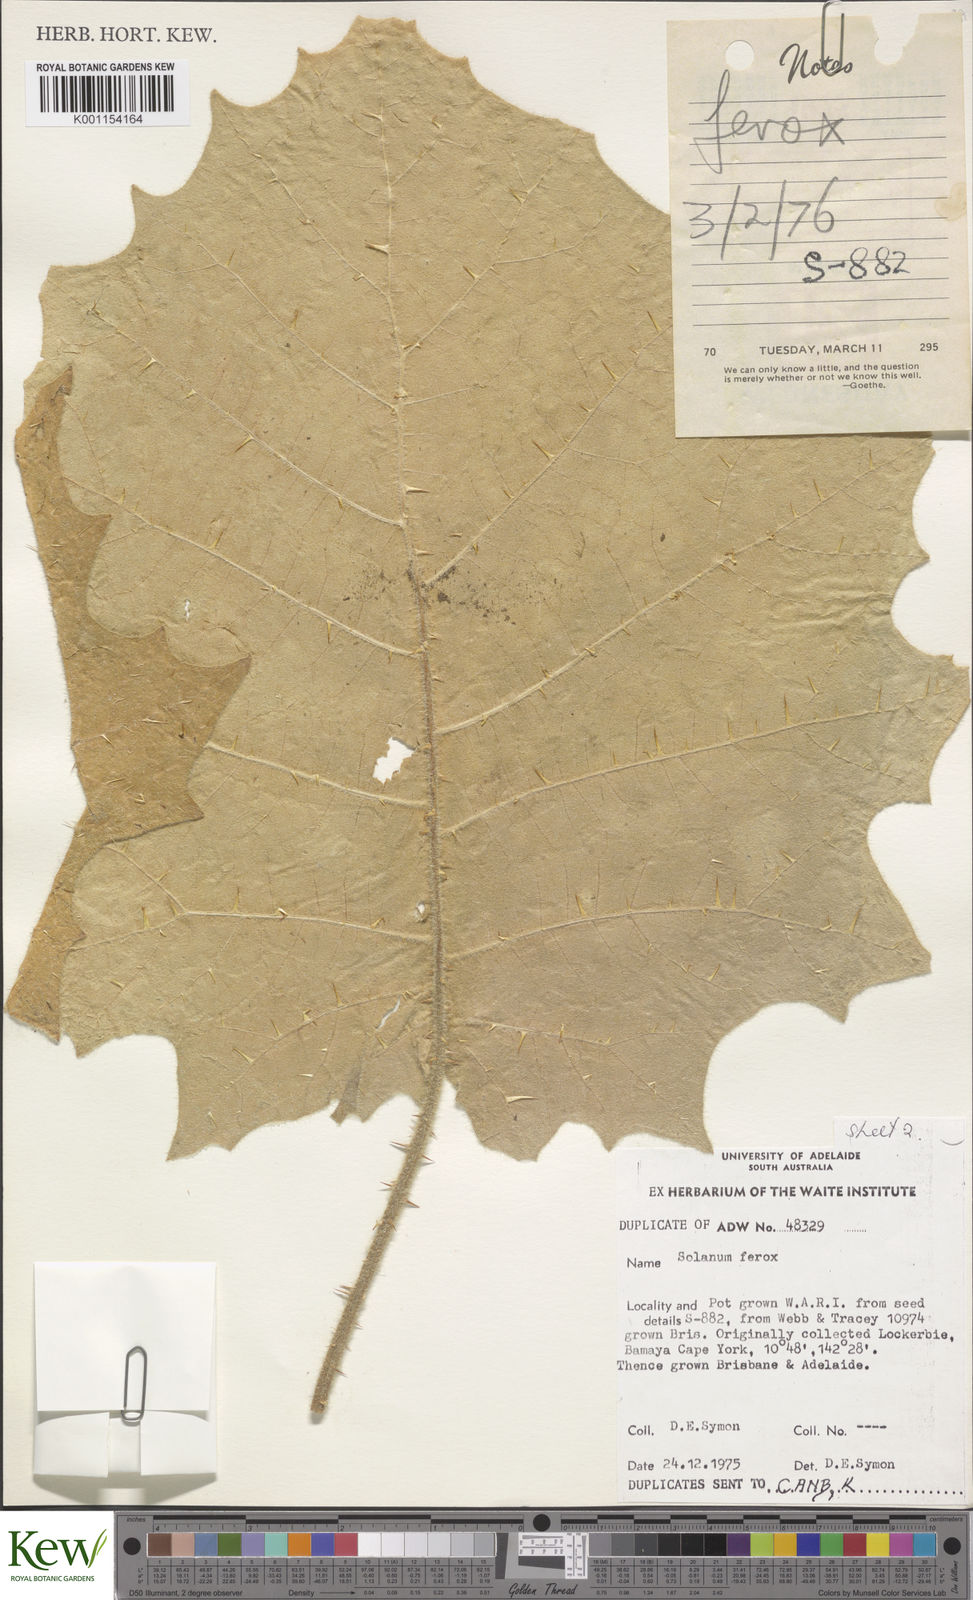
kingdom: Plantae
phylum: Tracheophyta
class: Magnoliopsida
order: Solanales
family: Solanaceae
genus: Solanum
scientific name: Solanum
